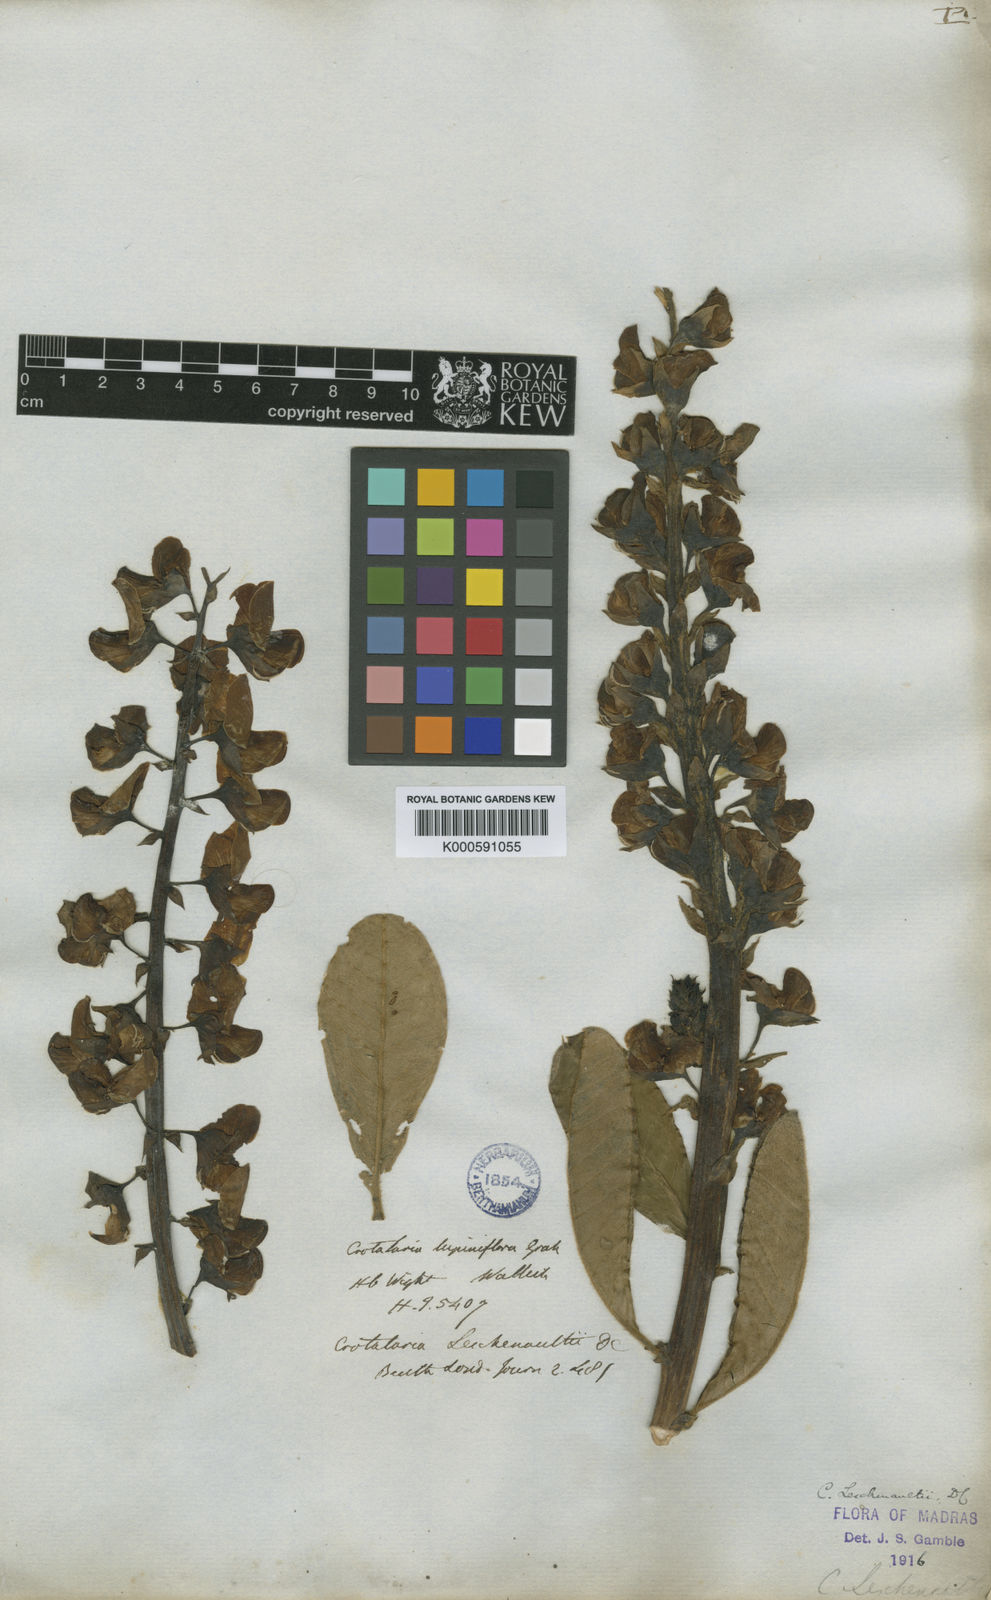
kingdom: Plantae
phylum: Tracheophyta
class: Magnoliopsida
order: Fabales
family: Fabaceae
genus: Crotalaria
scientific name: Crotalaria leschenaultii
